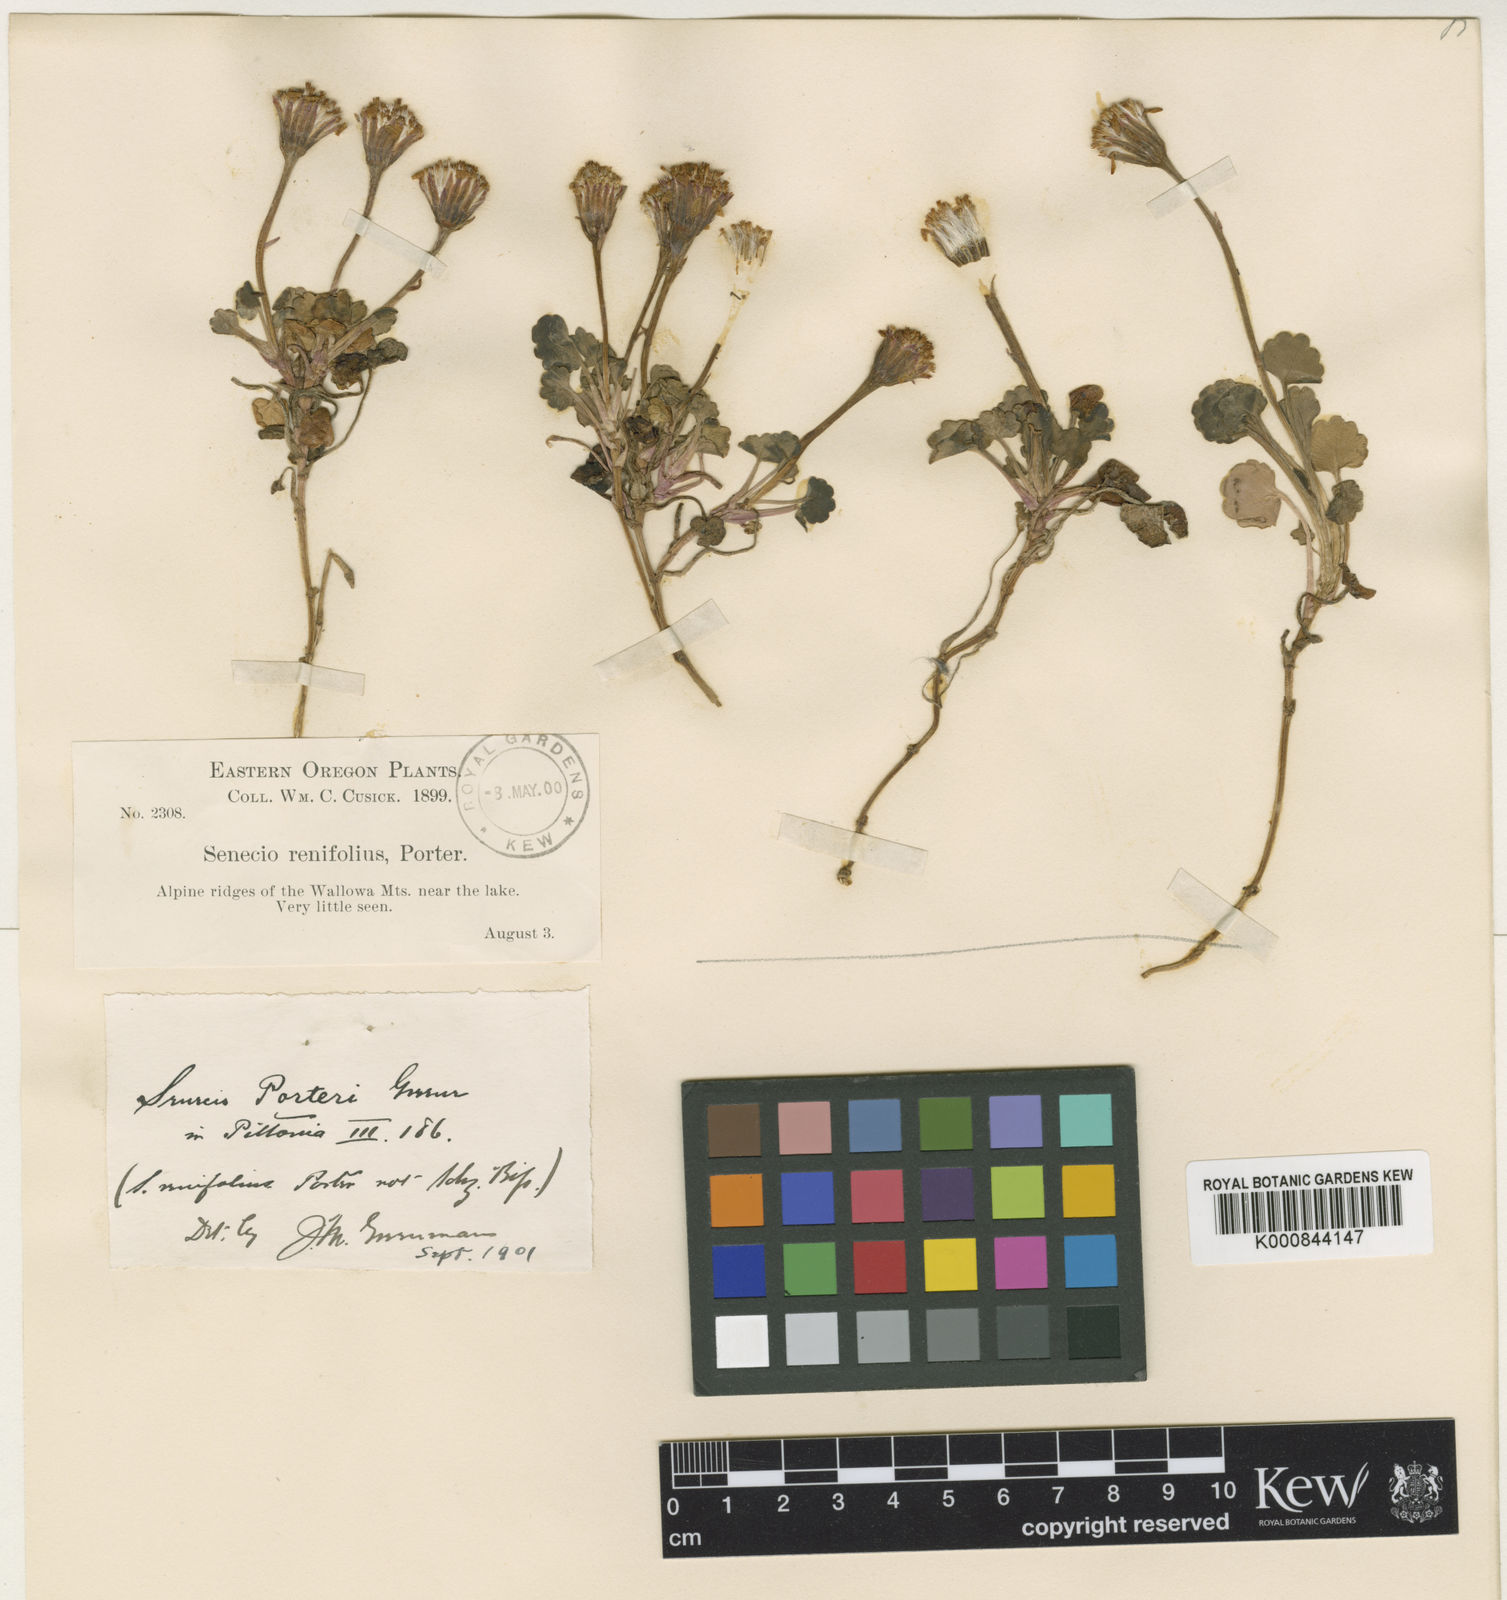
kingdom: Plantae
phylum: Tracheophyta
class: Magnoliopsida
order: Asterales
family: Asteraceae
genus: Packera
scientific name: Packera porteri
